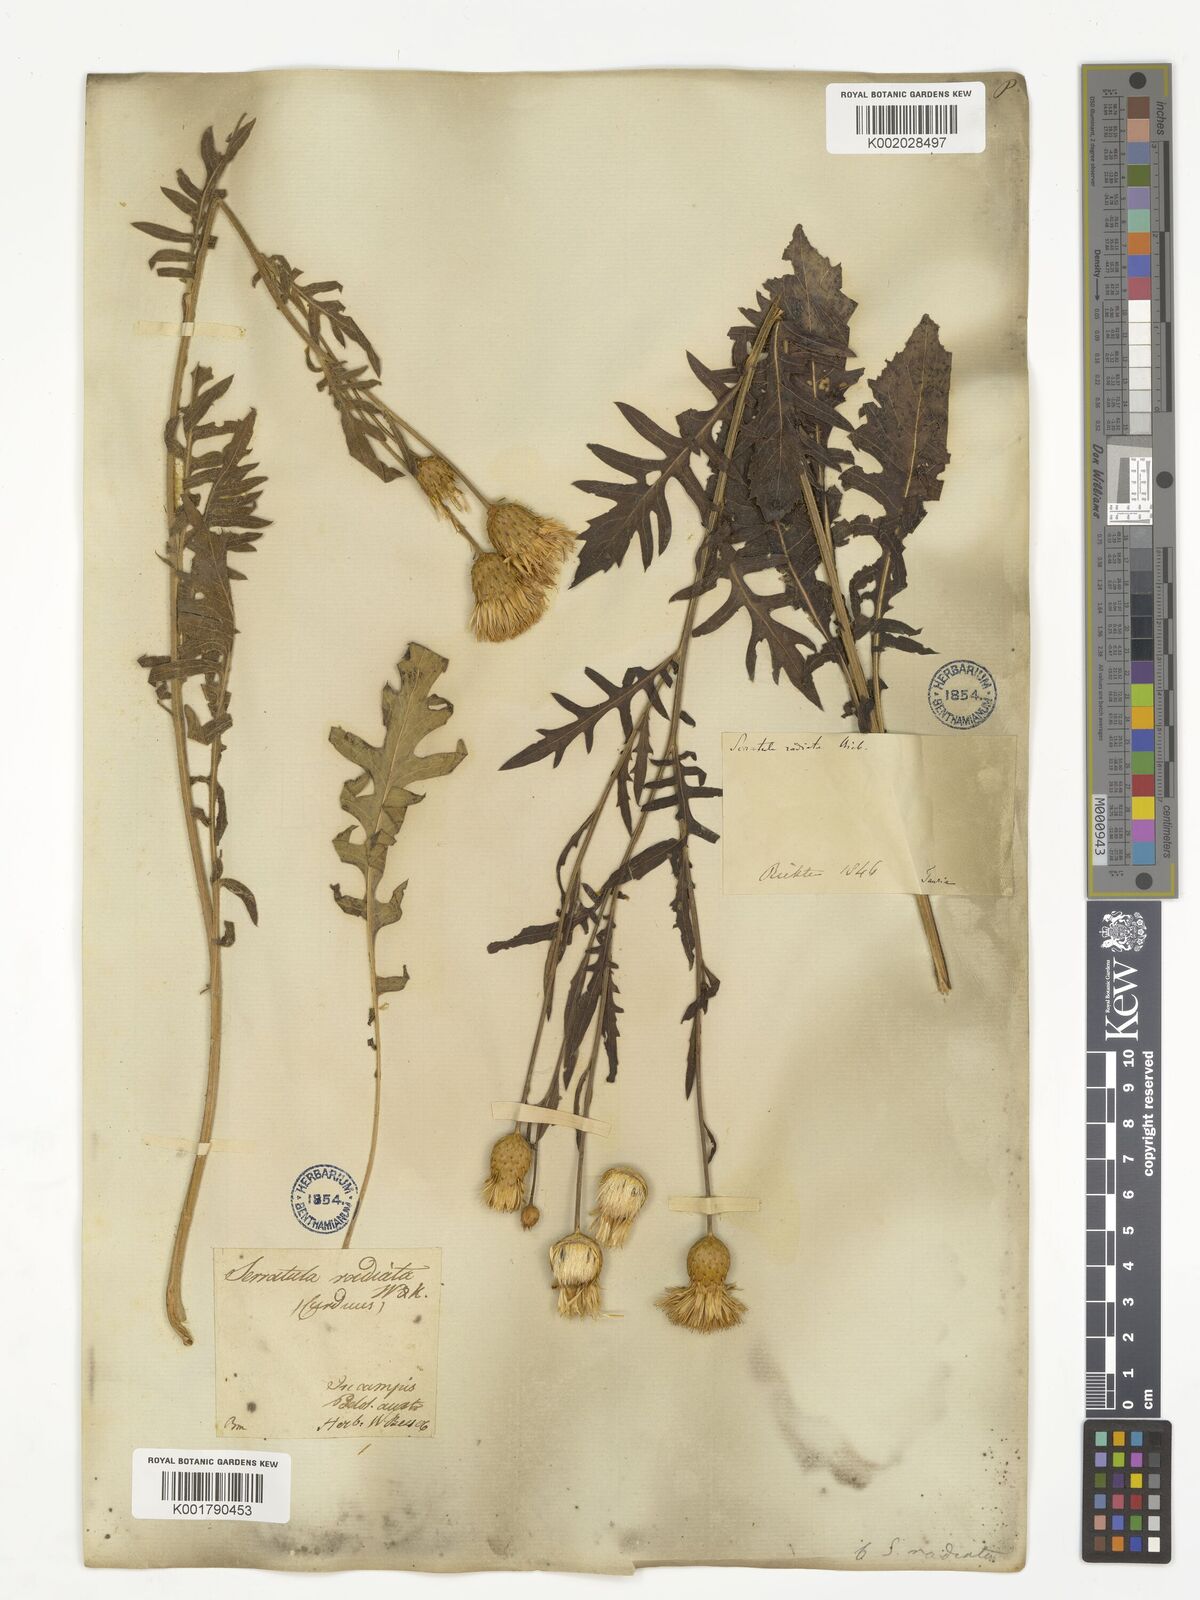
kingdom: Plantae
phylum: Tracheophyta
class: Magnoliopsida
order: Asterales
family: Asteraceae
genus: Klasea
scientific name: Klasea radiata
